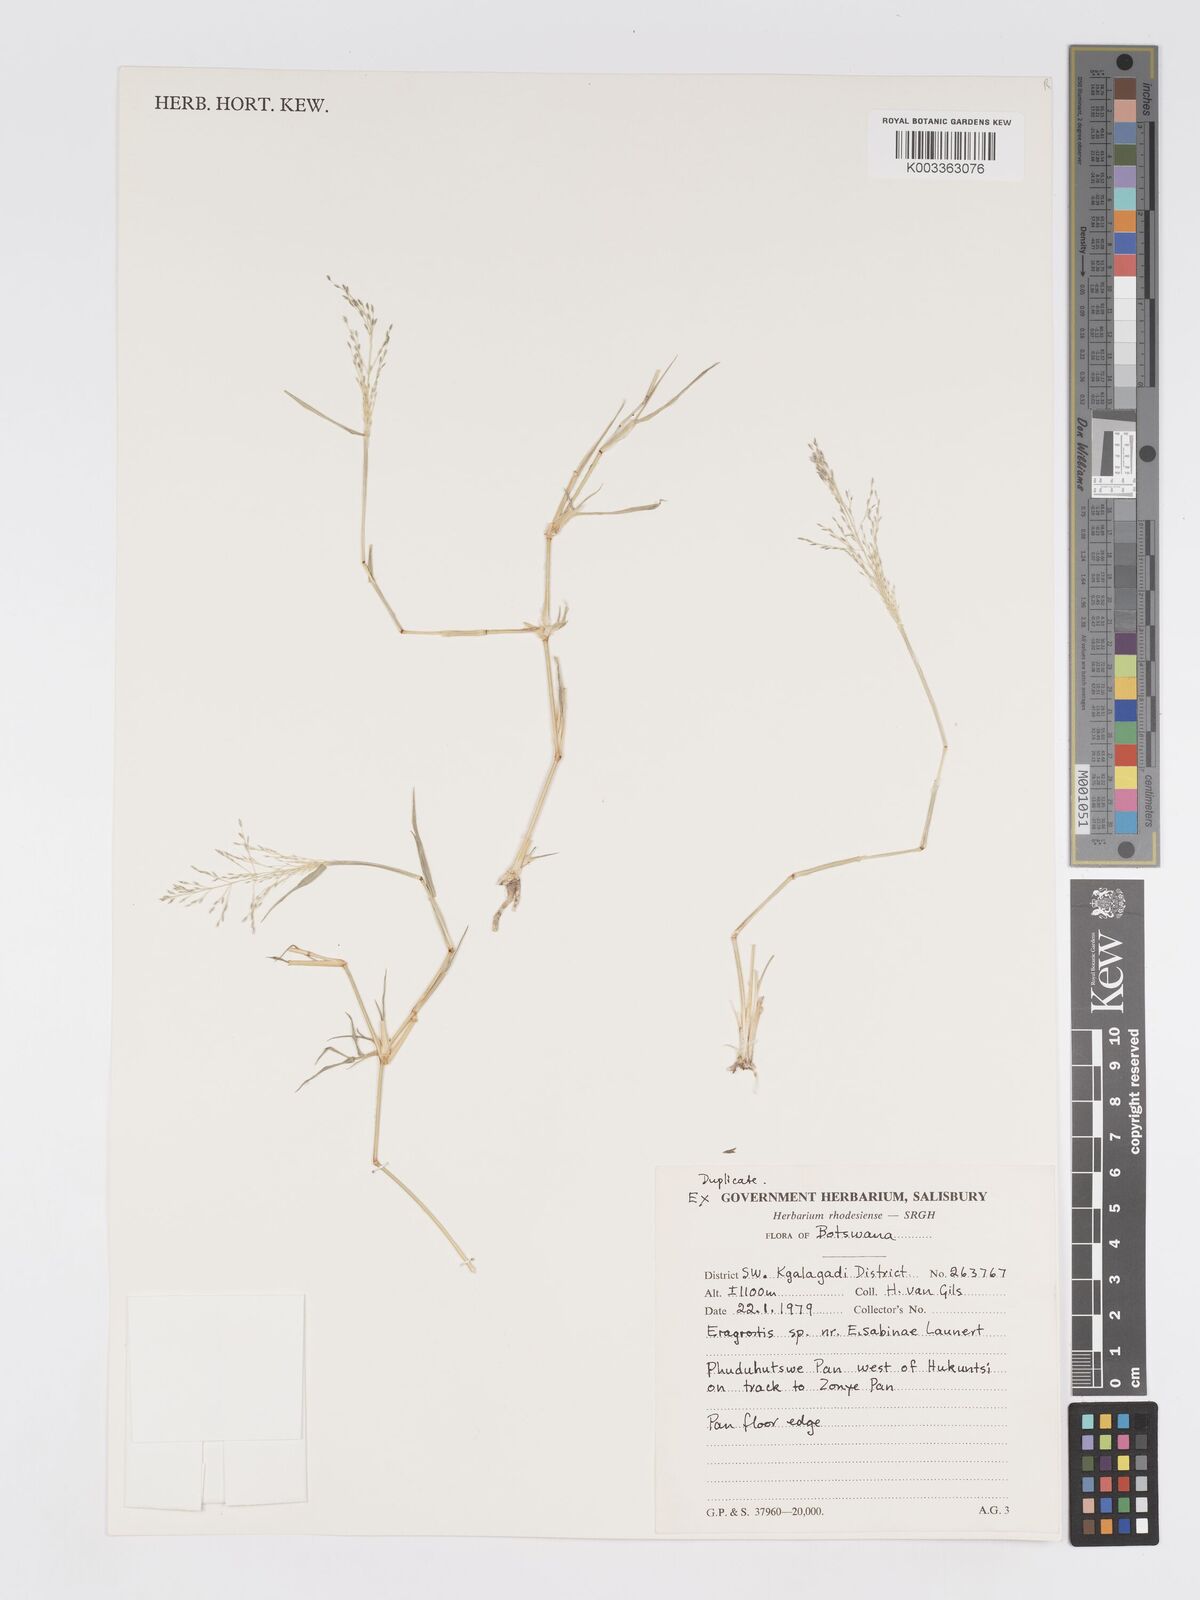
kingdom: Plantae
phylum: Tracheophyta
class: Liliopsida
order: Poales
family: Poaceae
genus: Eragrostis
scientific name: Eragrostis cylindriflora
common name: Cylinderflower lovegrass
